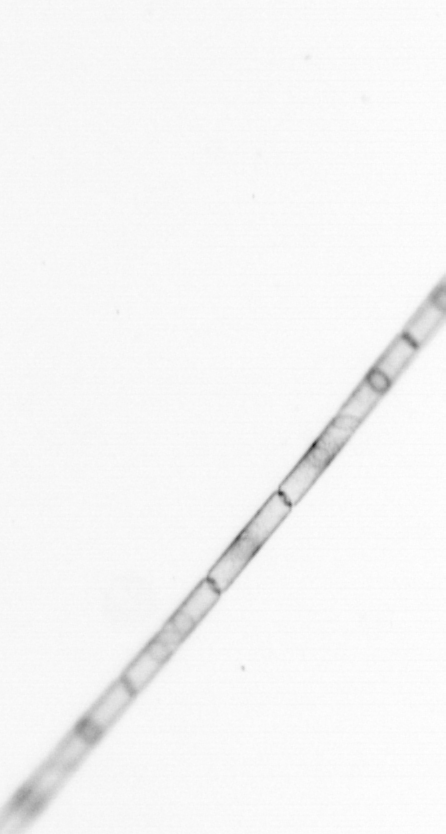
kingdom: Chromista
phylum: Ochrophyta
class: Bacillariophyceae
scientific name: Bacillariophyceae
